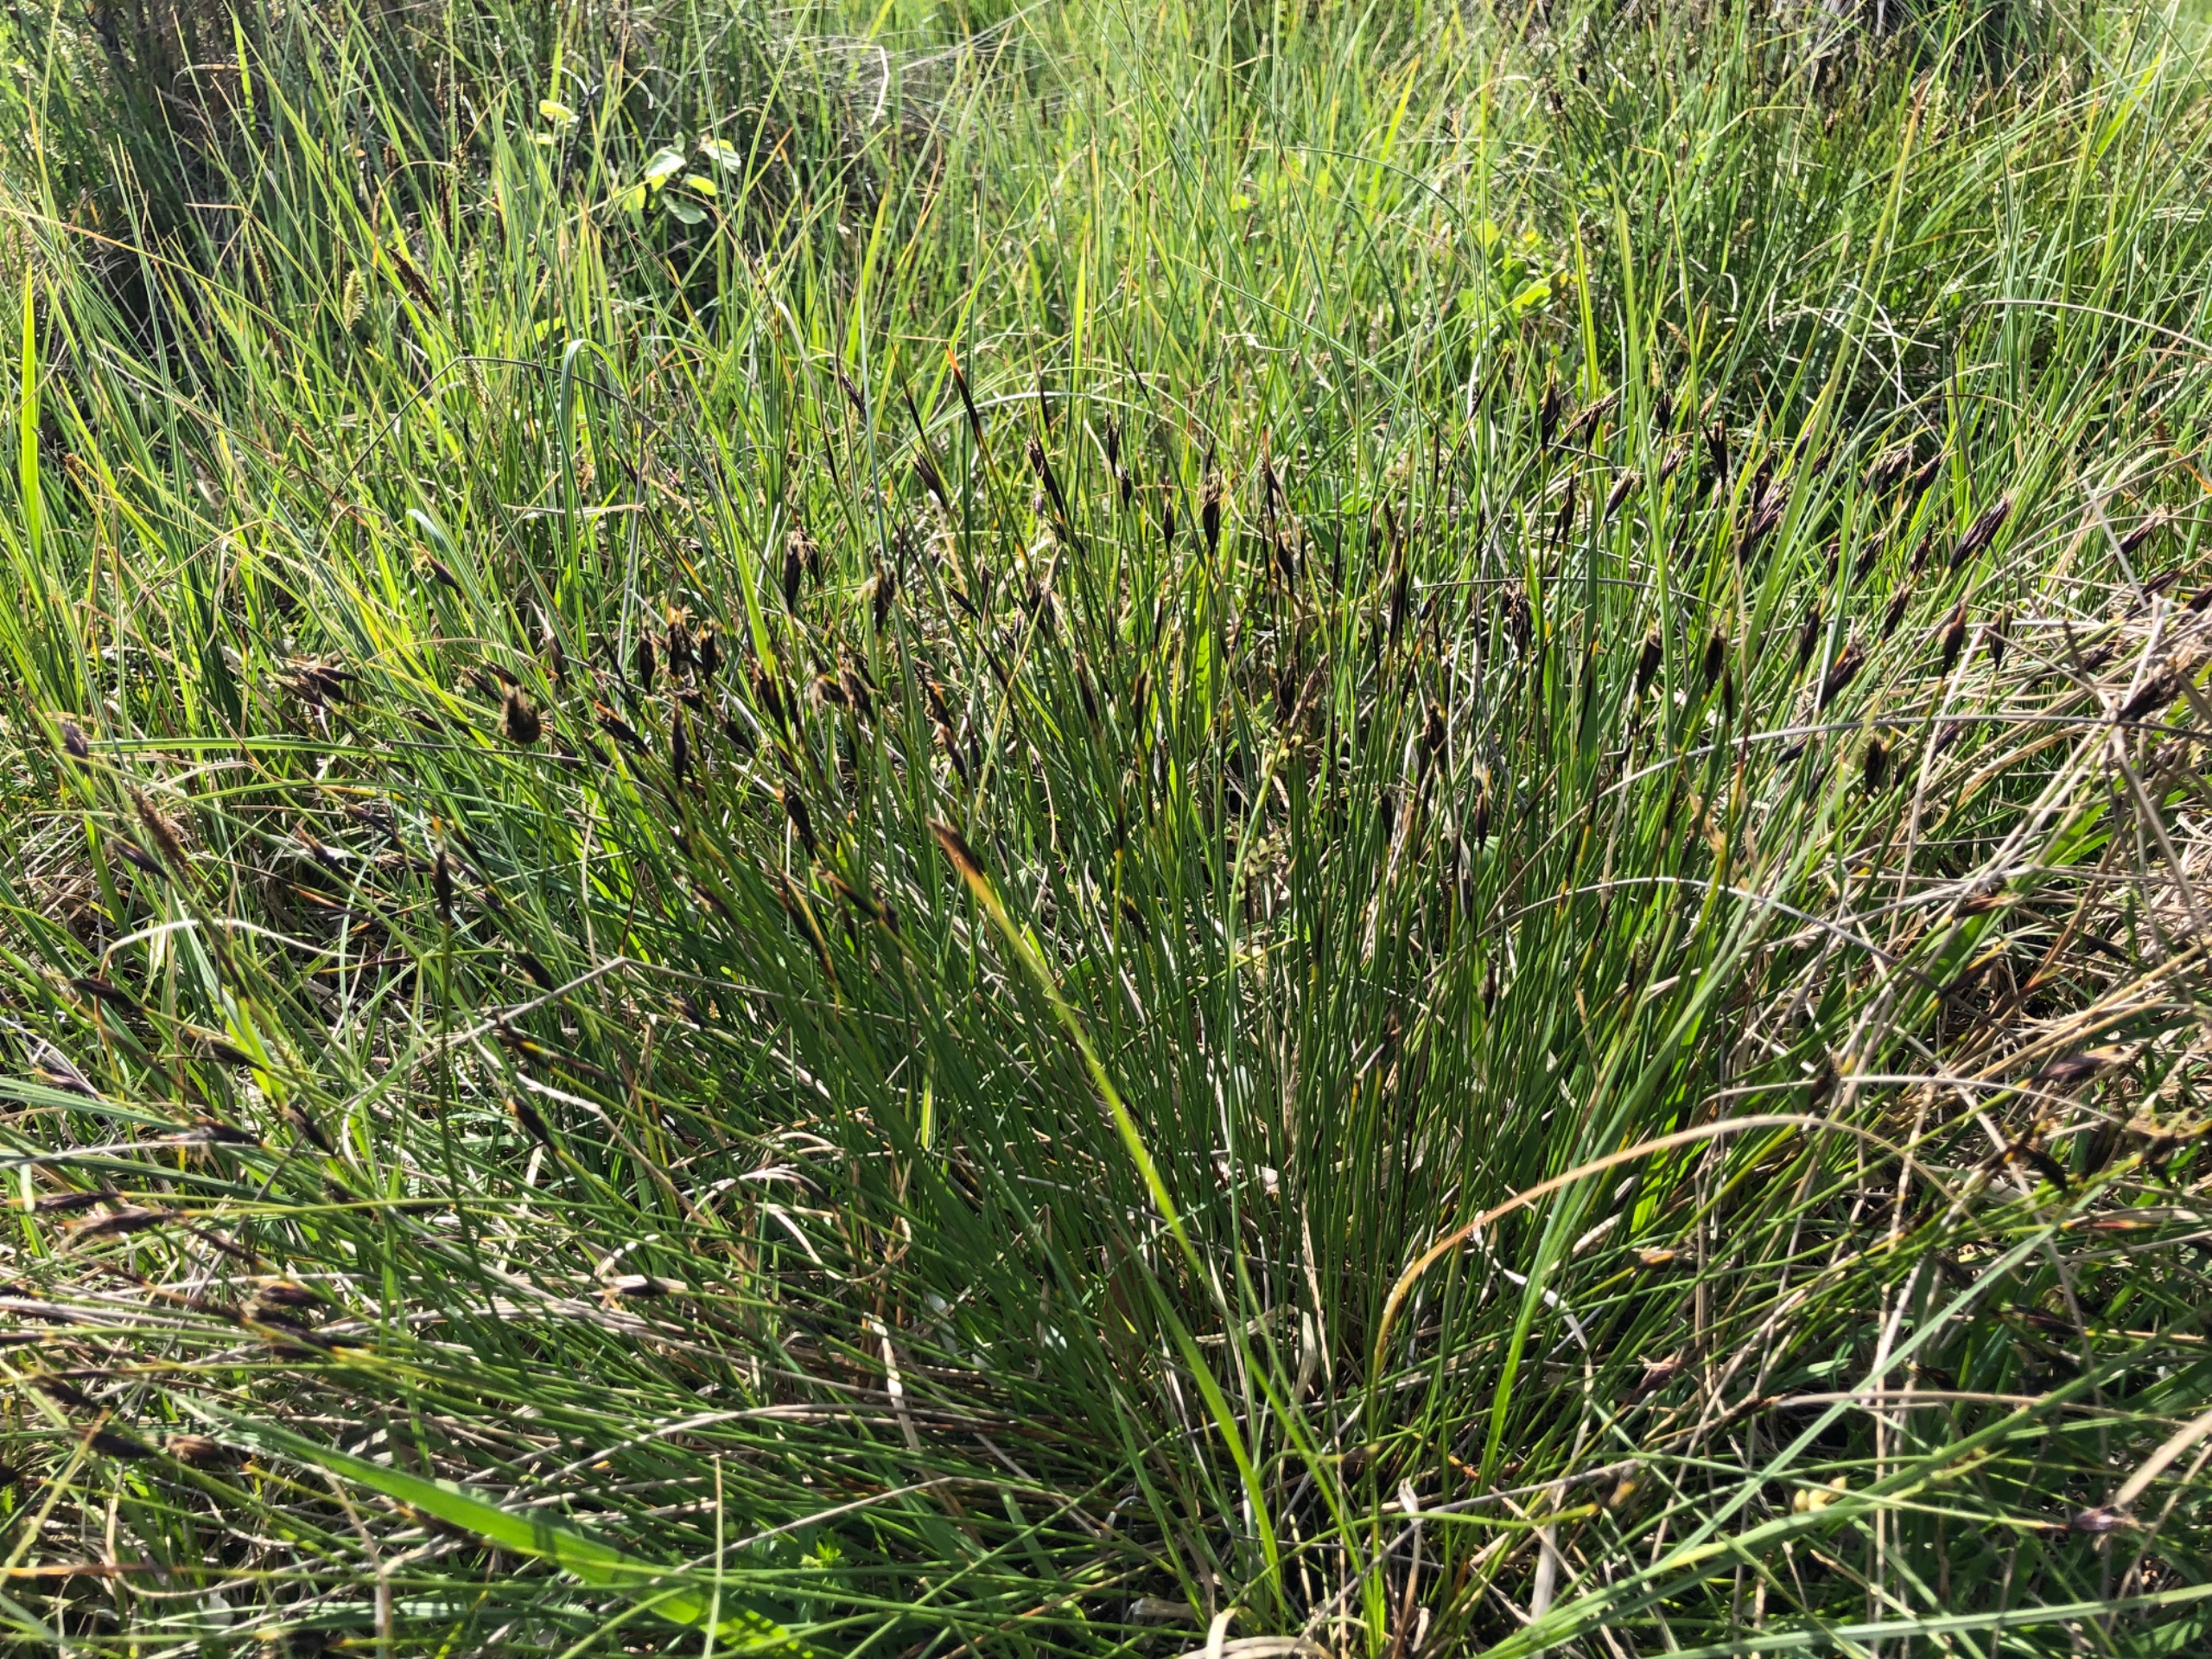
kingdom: Plantae
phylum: Tracheophyta
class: Liliopsida
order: Poales
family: Cyperaceae
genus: Schoenus
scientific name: Schoenus ferrugineus
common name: Rust-skæne
